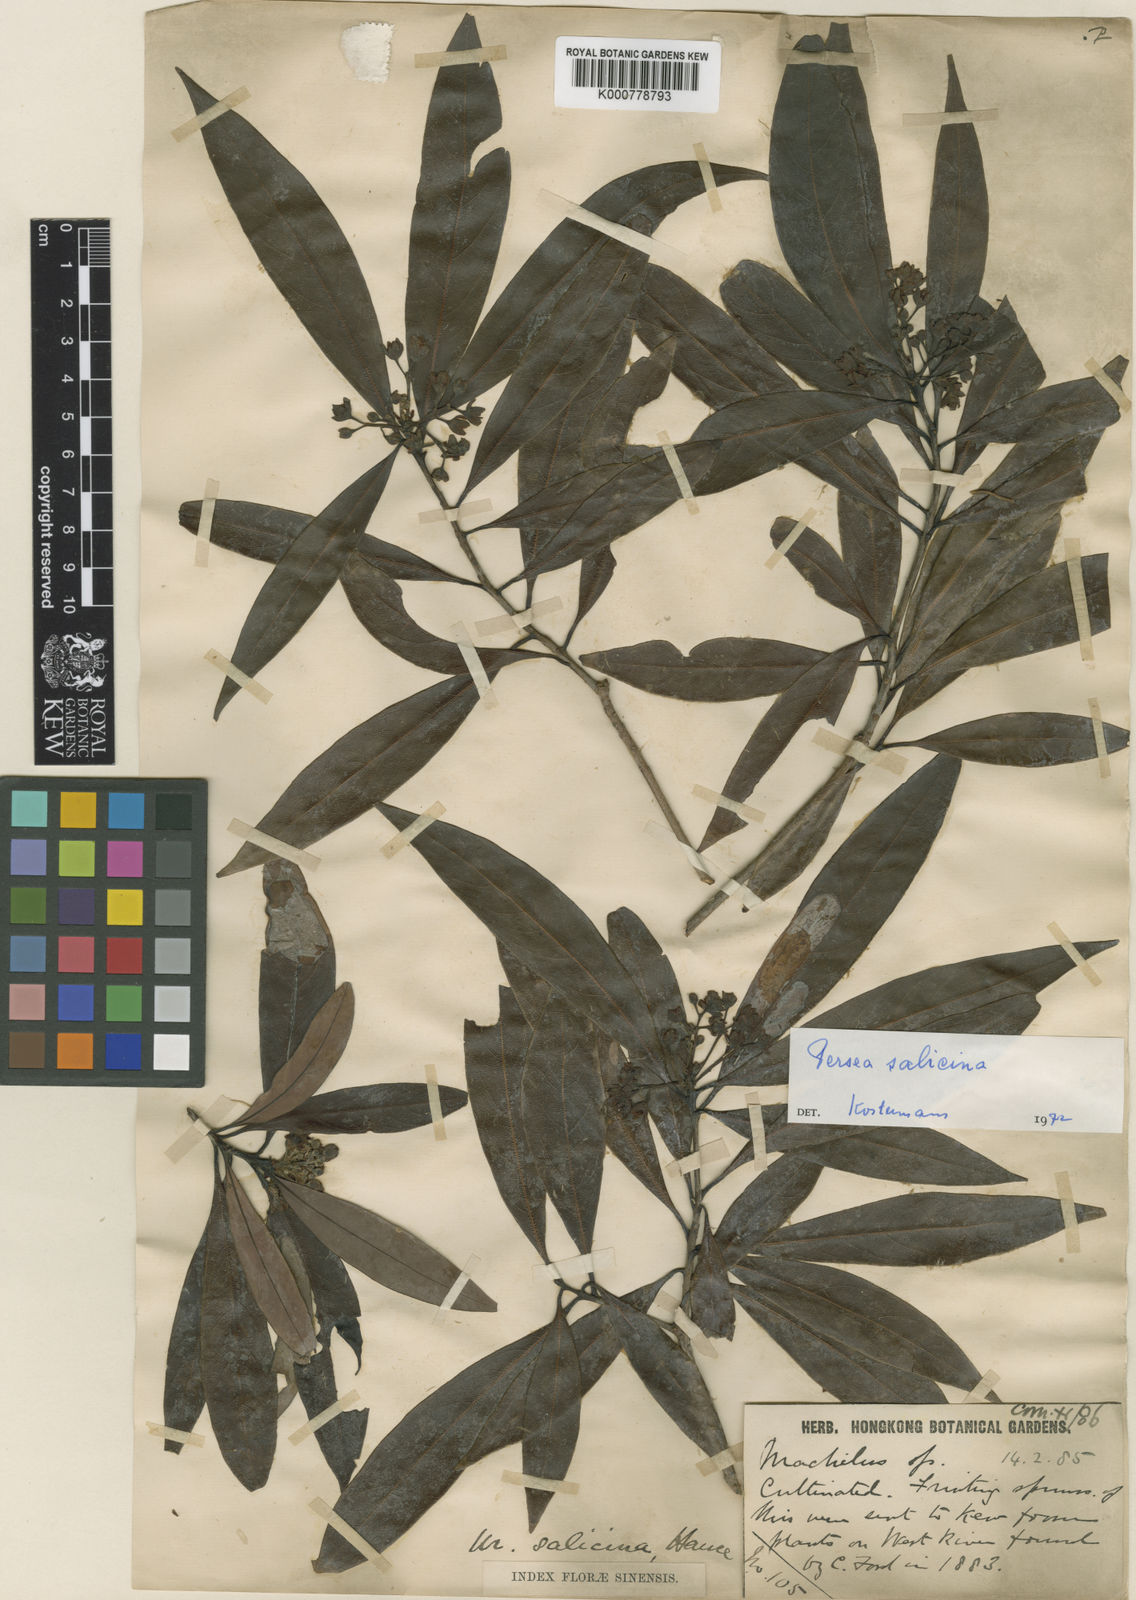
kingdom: Plantae
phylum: Tracheophyta
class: Magnoliopsida
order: Laurales
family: Lauraceae
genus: Machilus
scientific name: Machilus salicina
